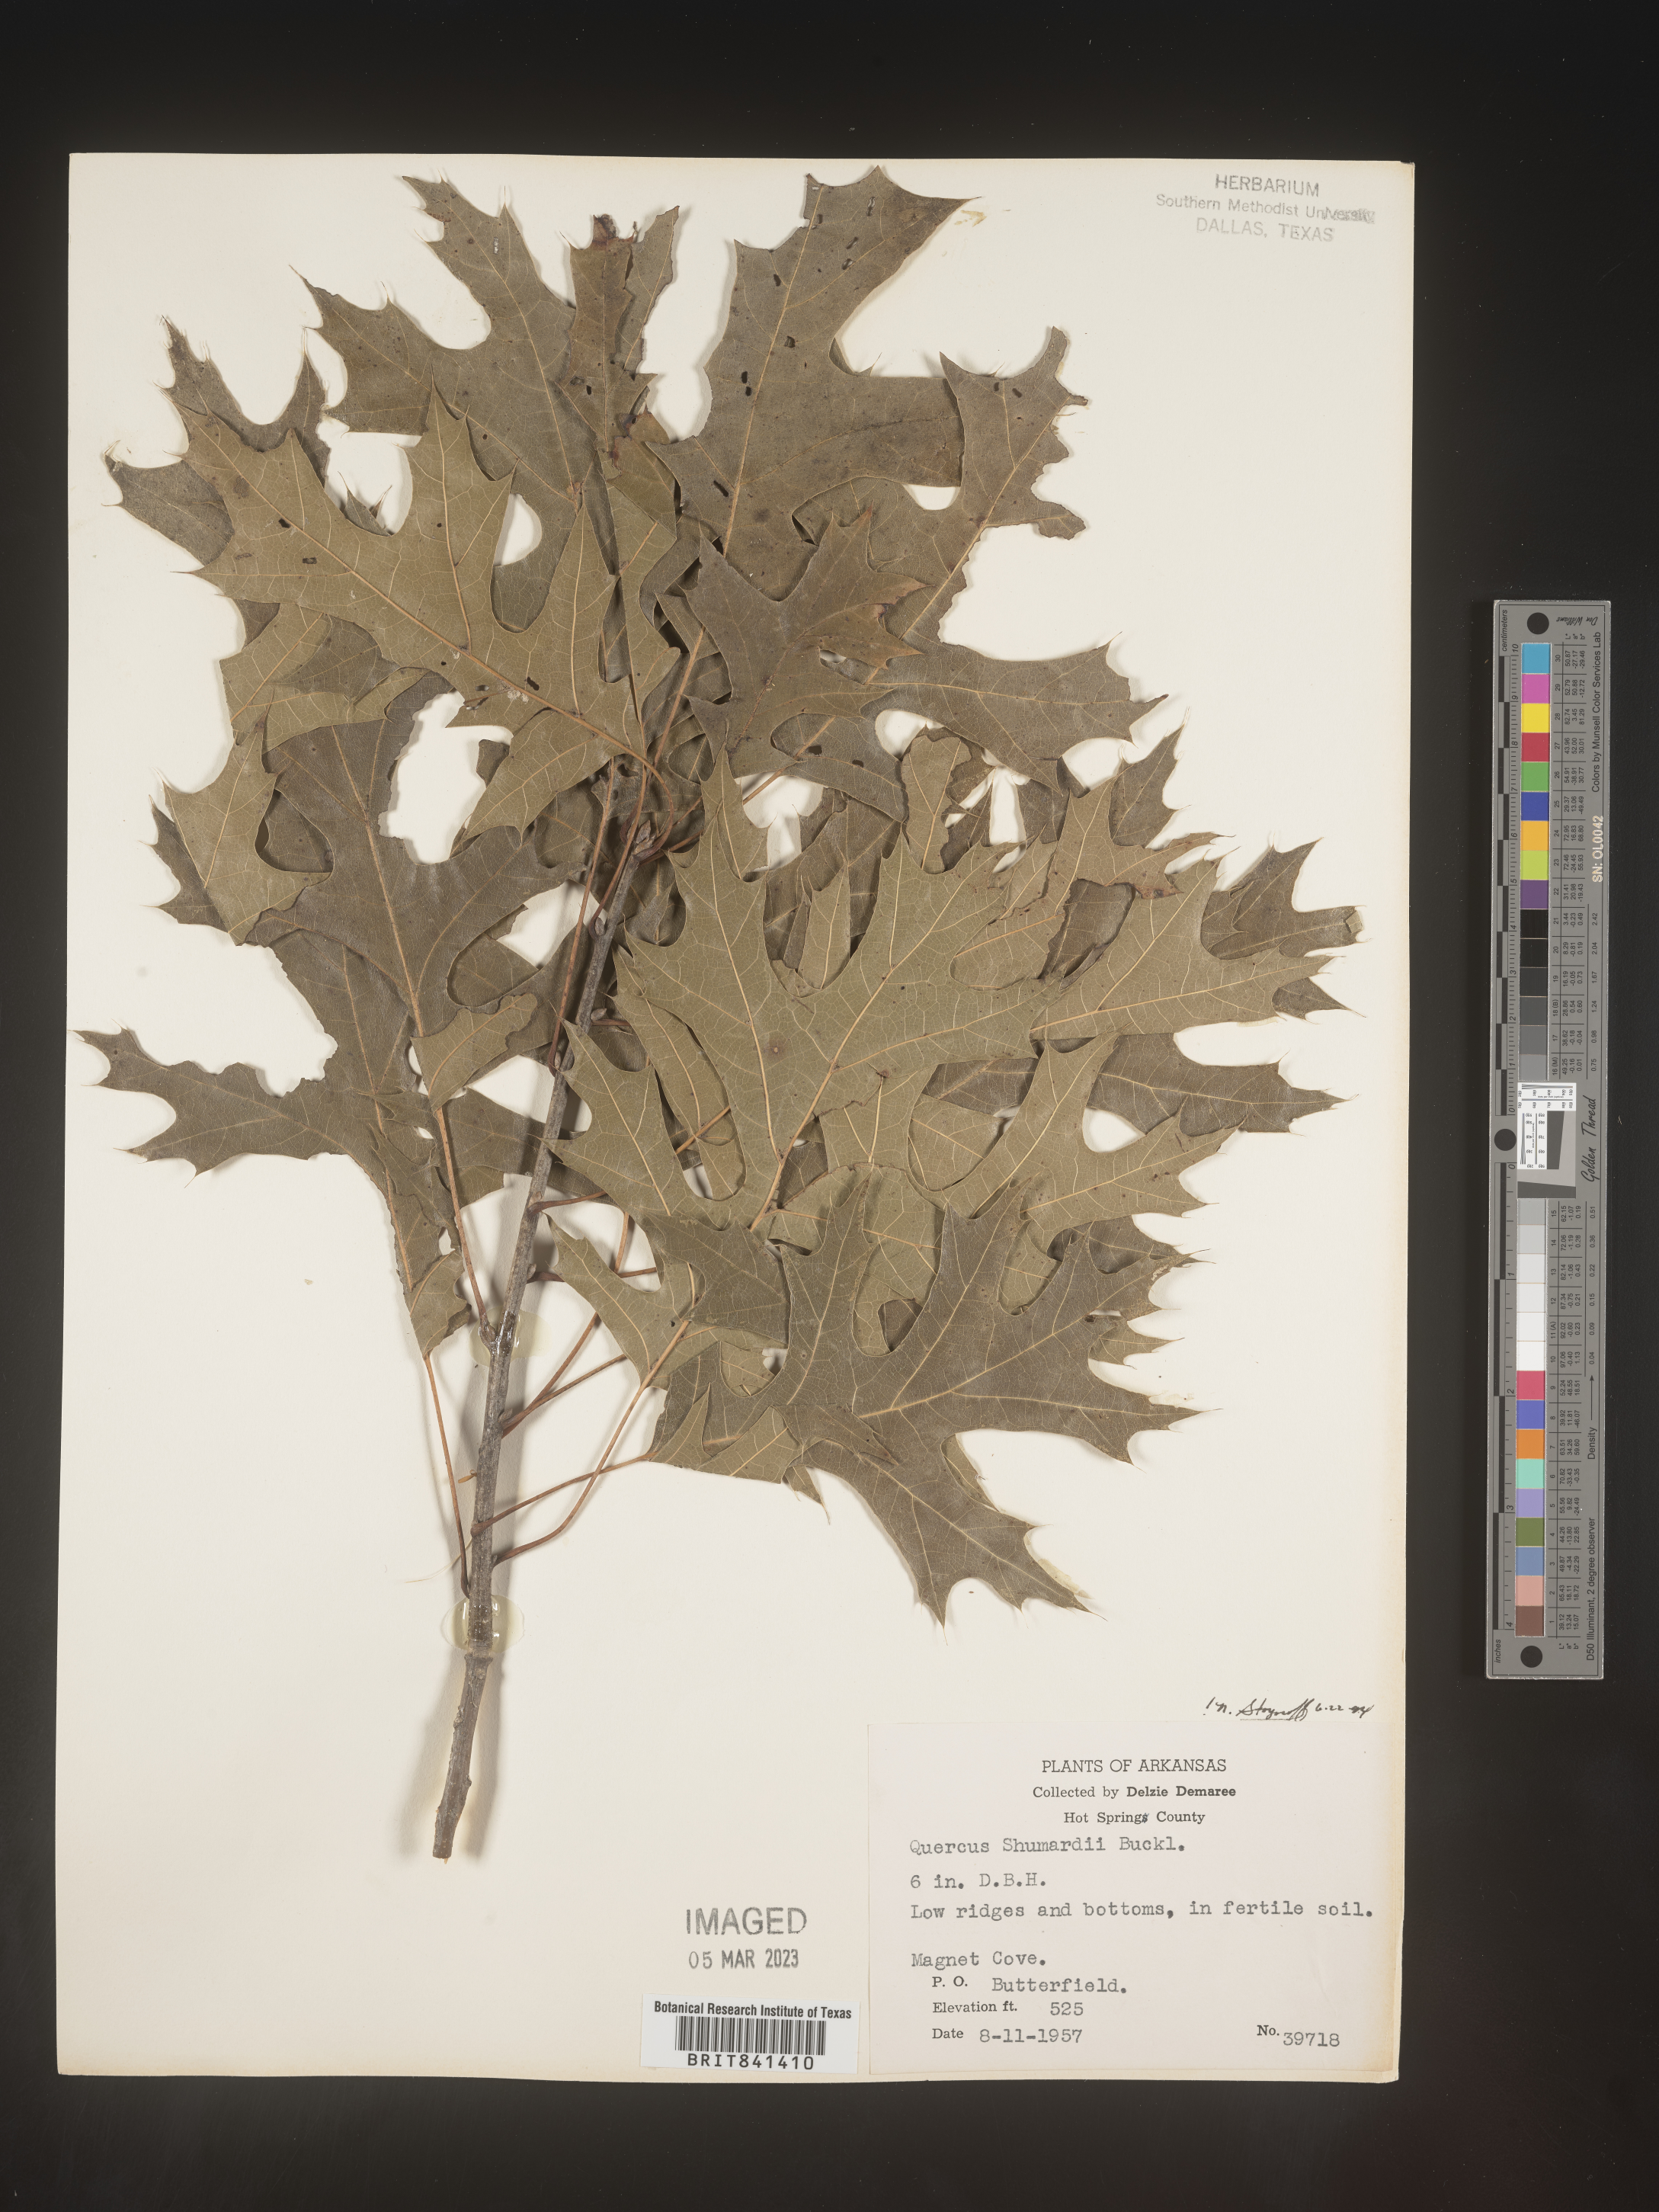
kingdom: Plantae
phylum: Tracheophyta
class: Magnoliopsida
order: Fagales
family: Fagaceae
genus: Quercus
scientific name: Quercus shumardii
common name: Shumard oak
